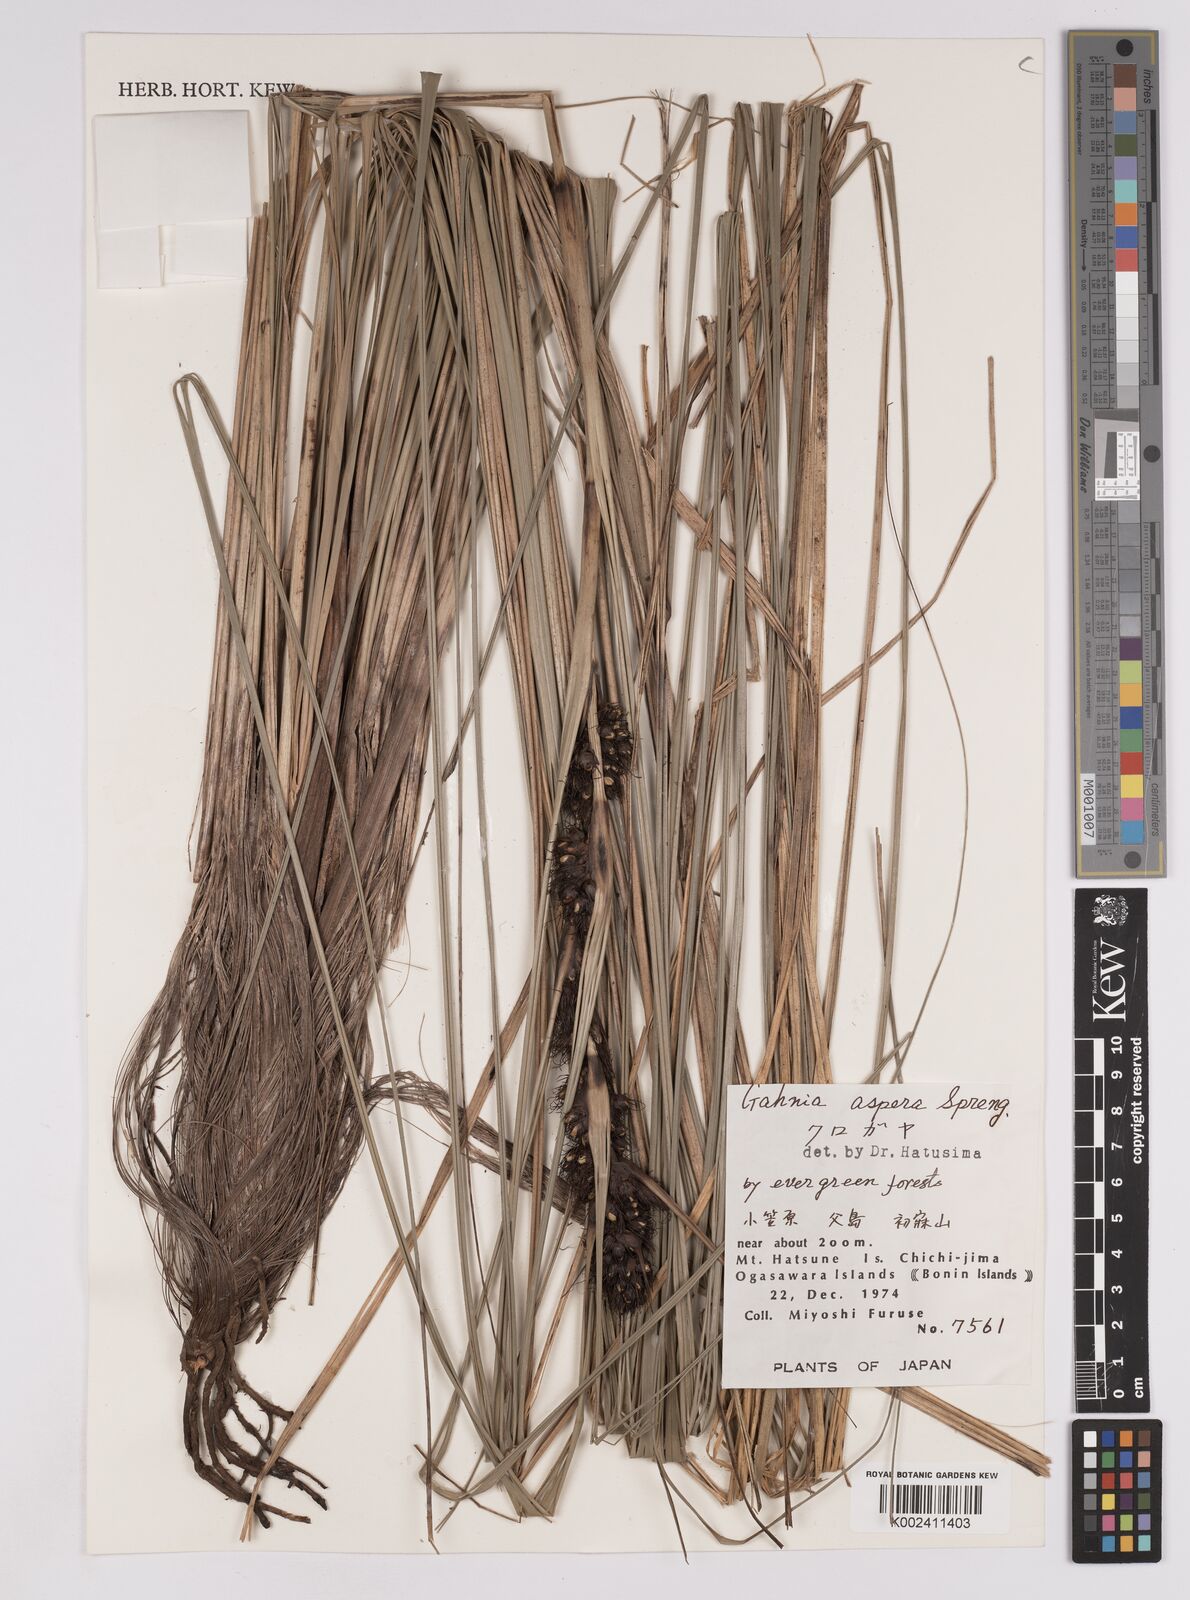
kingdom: Plantae
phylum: Tracheophyta
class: Liliopsida
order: Poales
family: Cyperaceae
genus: Gahnia
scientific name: Gahnia aspera
